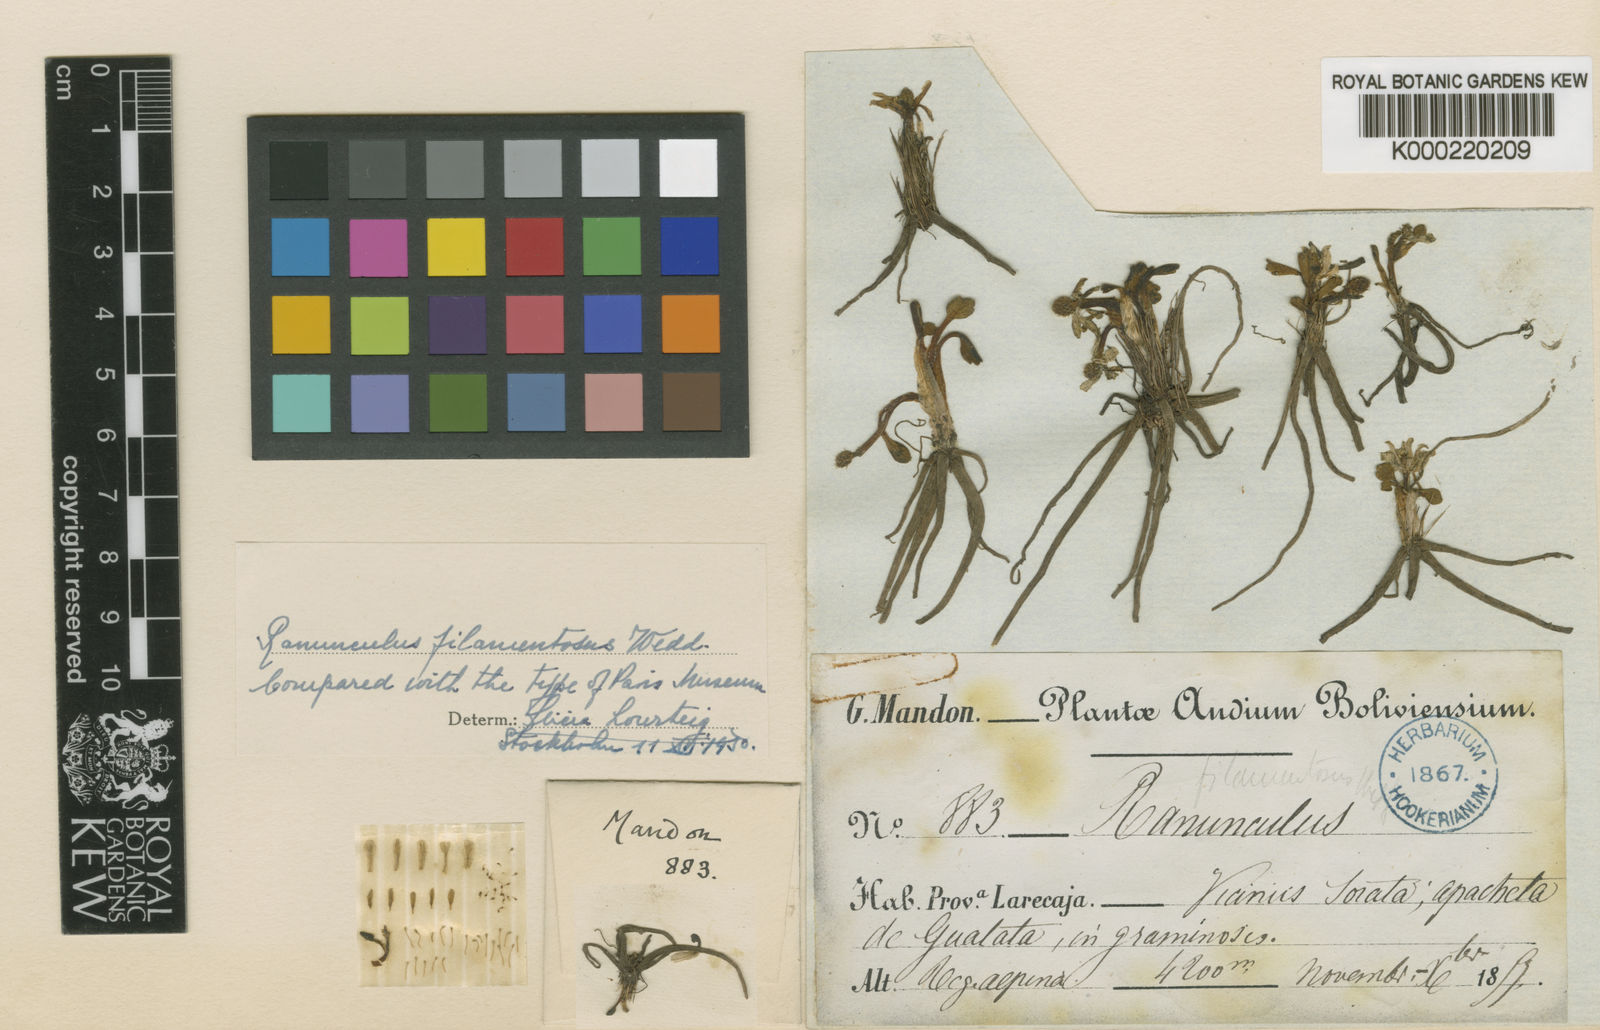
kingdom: Plantae
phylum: Tracheophyta
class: Magnoliopsida
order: Ranunculales
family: Ranunculaceae
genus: Ranunculus
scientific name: Ranunculus filamentosus
